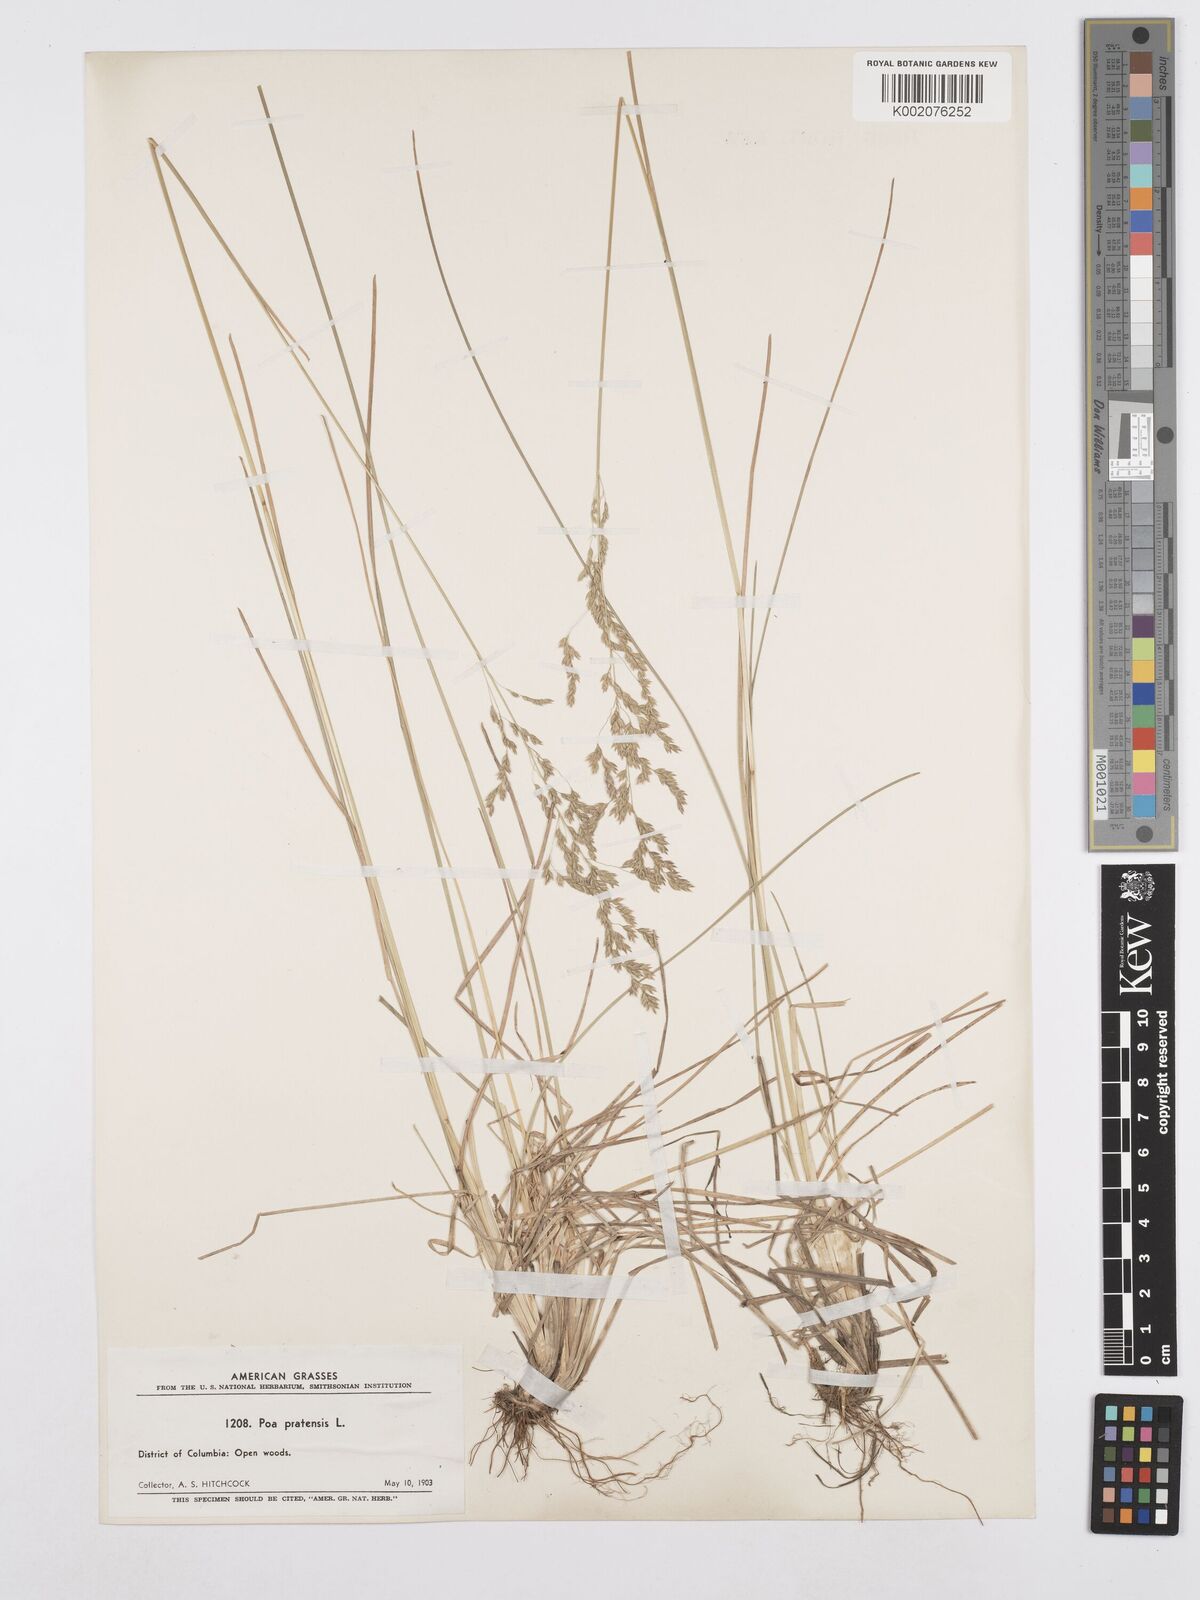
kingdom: Plantae
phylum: Tracheophyta
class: Liliopsida
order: Poales
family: Poaceae
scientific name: Poaceae
